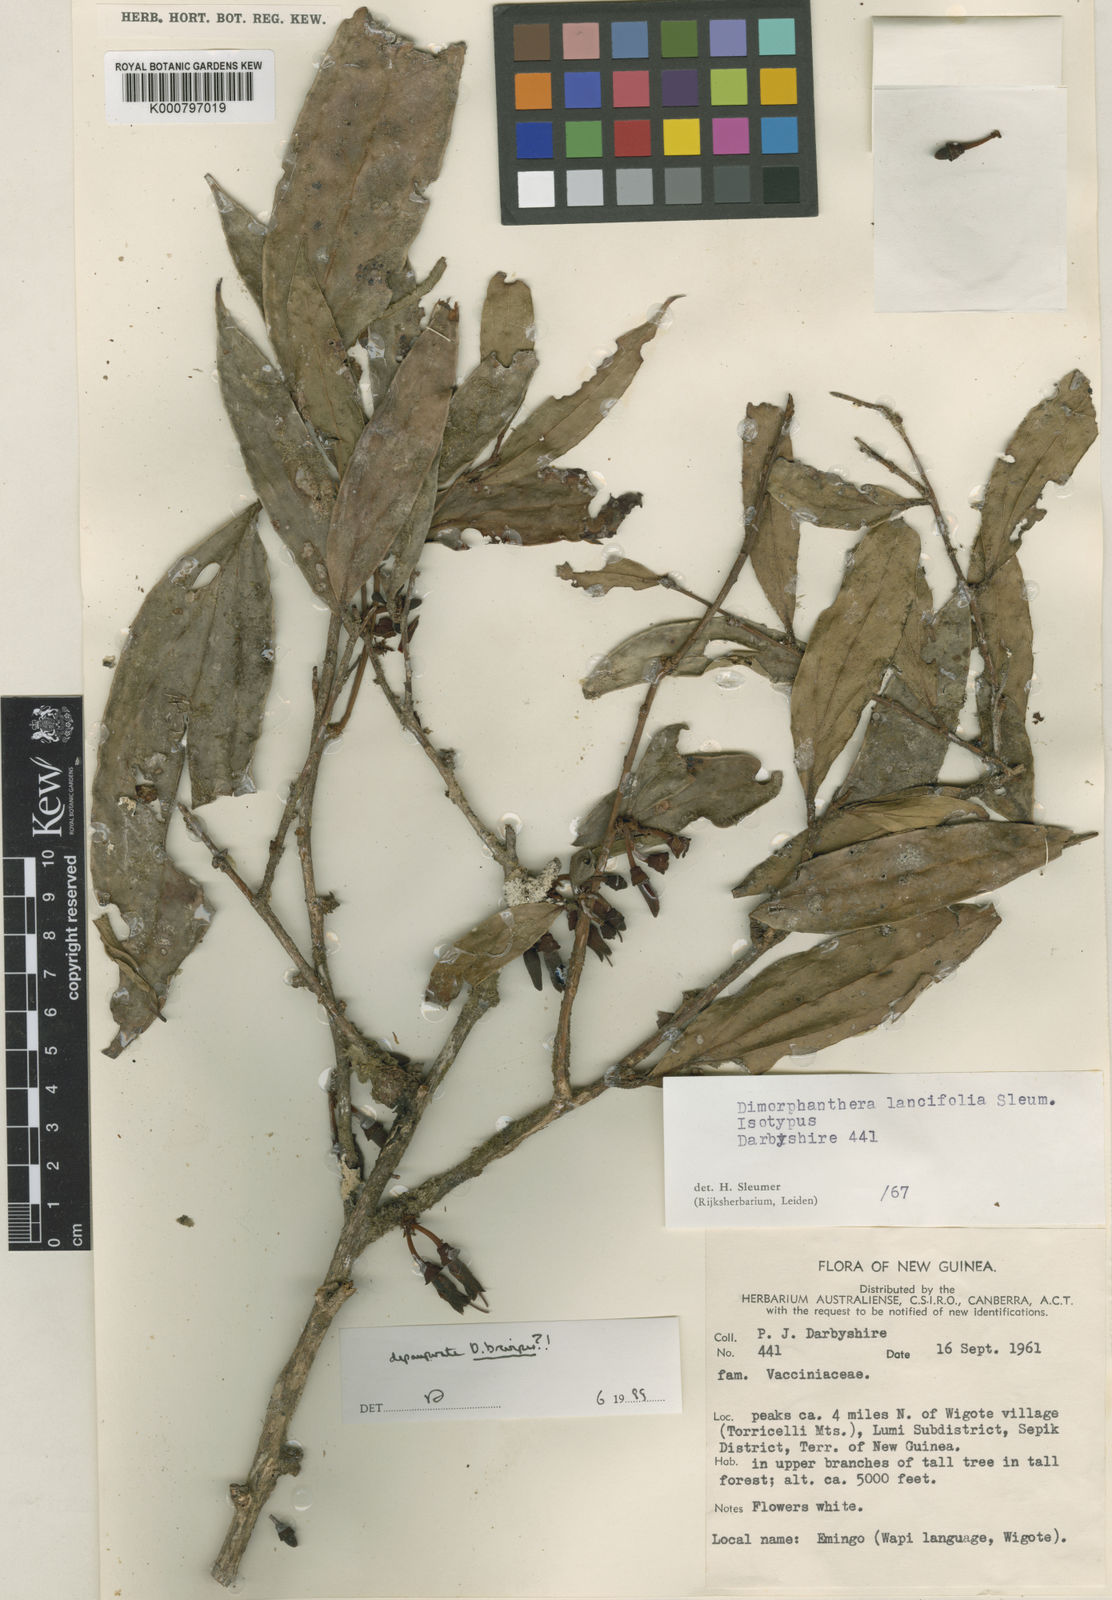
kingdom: Plantae
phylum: Tracheophyta
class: Magnoliopsida
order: Ericales
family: Ericaceae
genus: Dimorphanthera
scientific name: Dimorphanthera lancifolia
